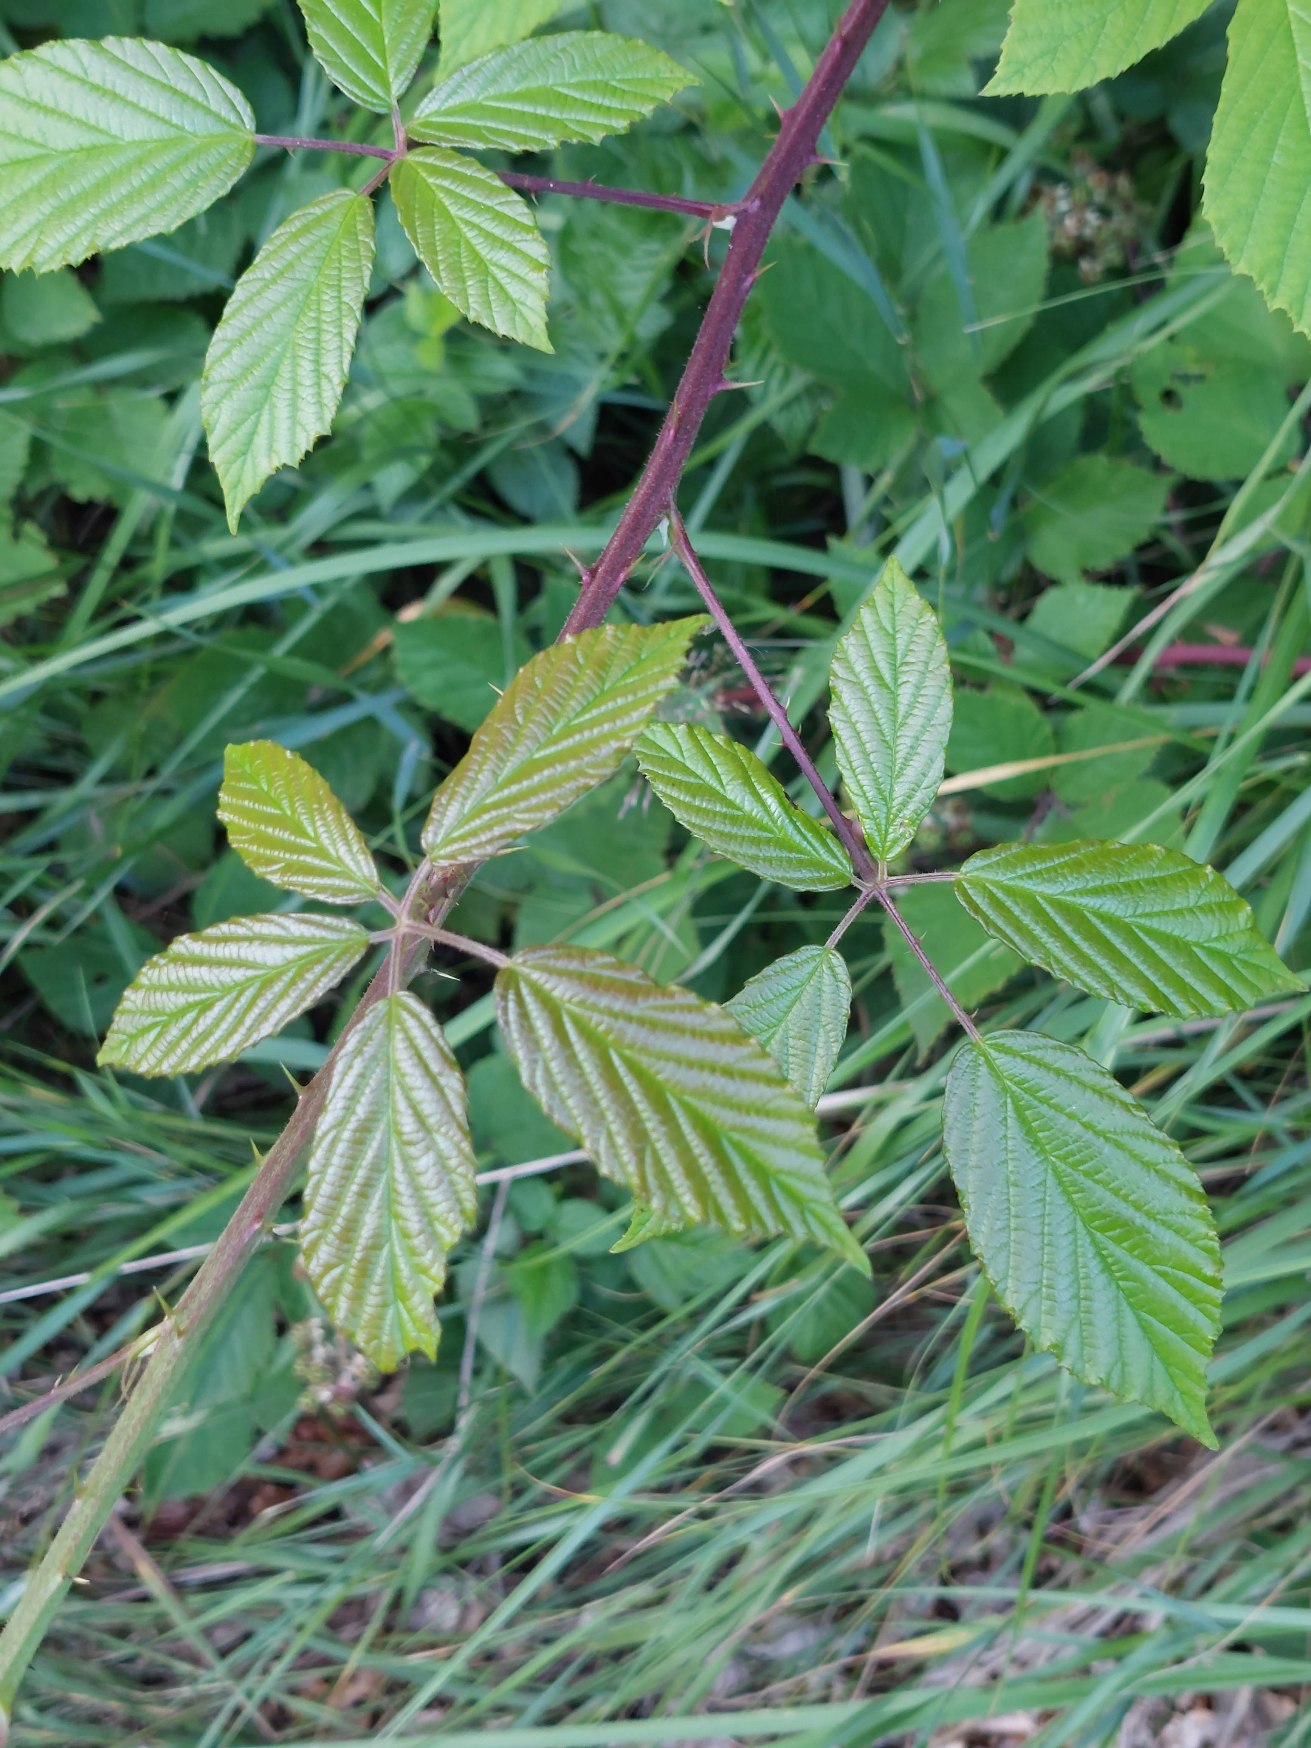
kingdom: Plantae
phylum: Tracheophyta
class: Magnoliopsida
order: Rosales
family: Rosaceae
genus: Rubus
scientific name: Rubus radula
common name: Rasperu brombær
